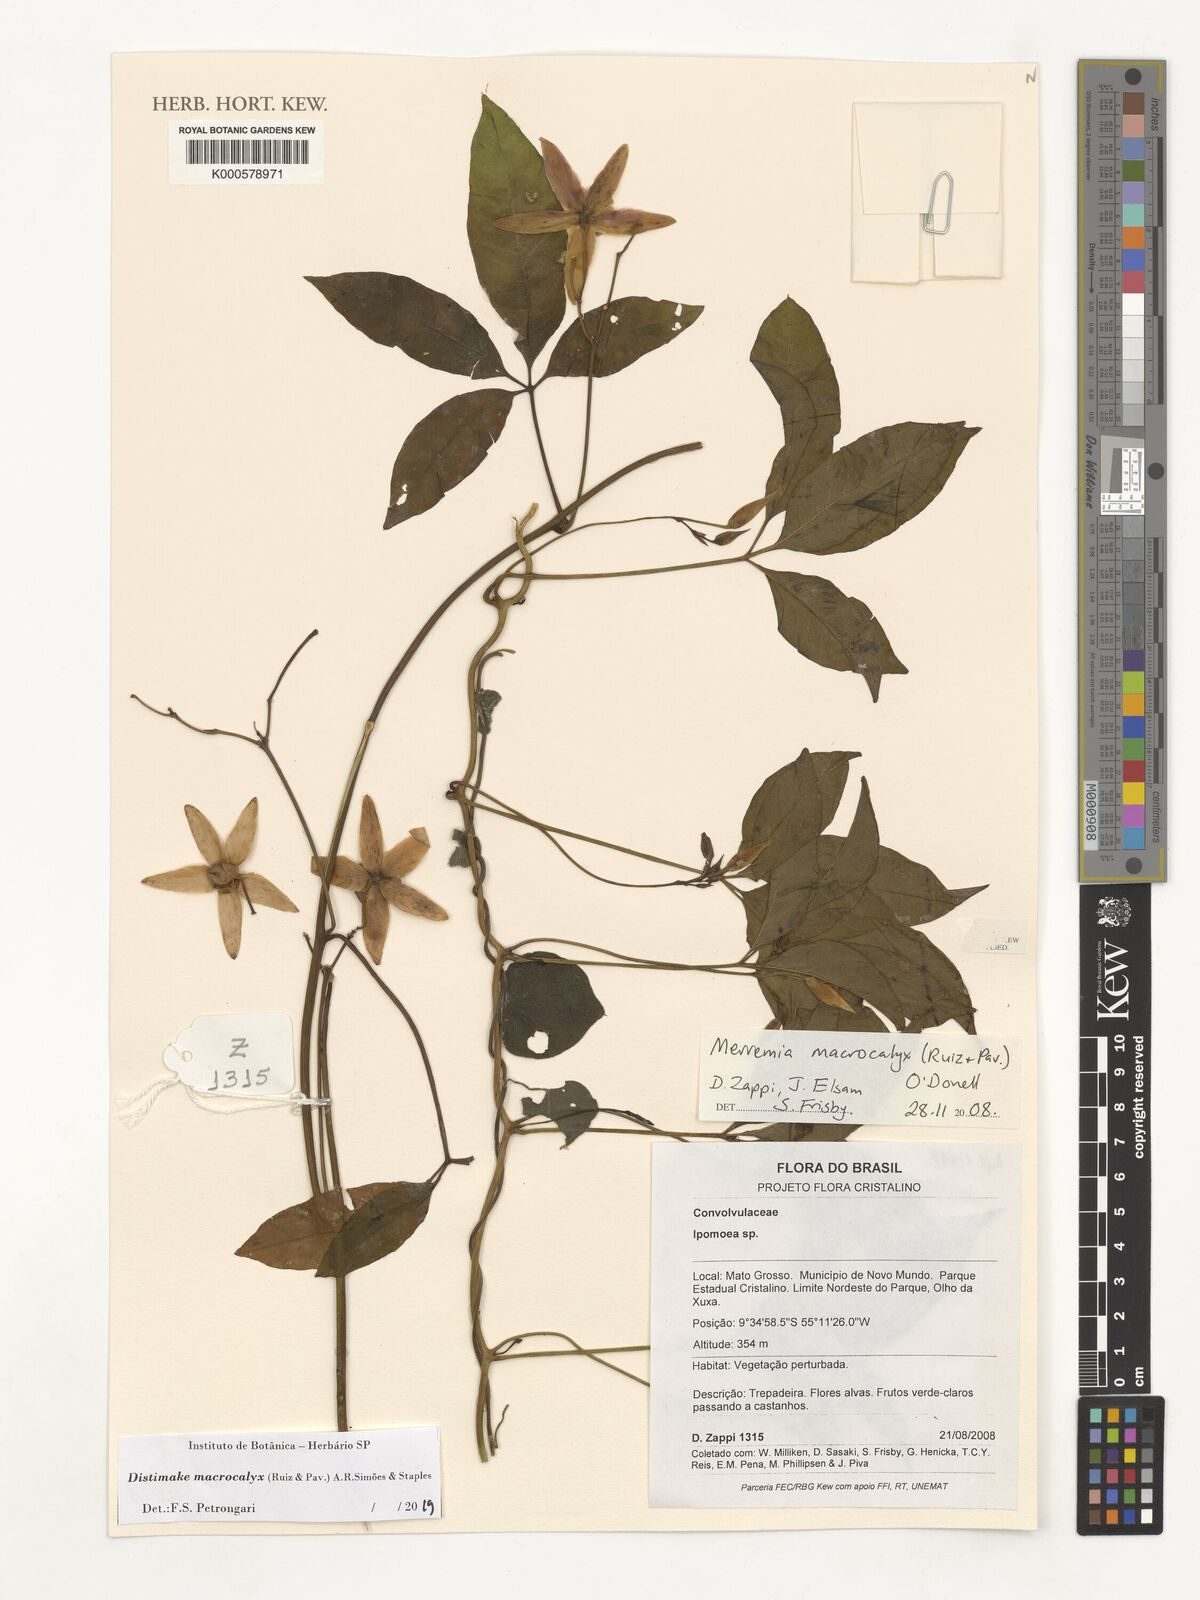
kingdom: Plantae
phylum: Tracheophyta
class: Magnoliopsida
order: Solanales
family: Convolvulaceae
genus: Distimake
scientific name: Distimake macrocalyx
